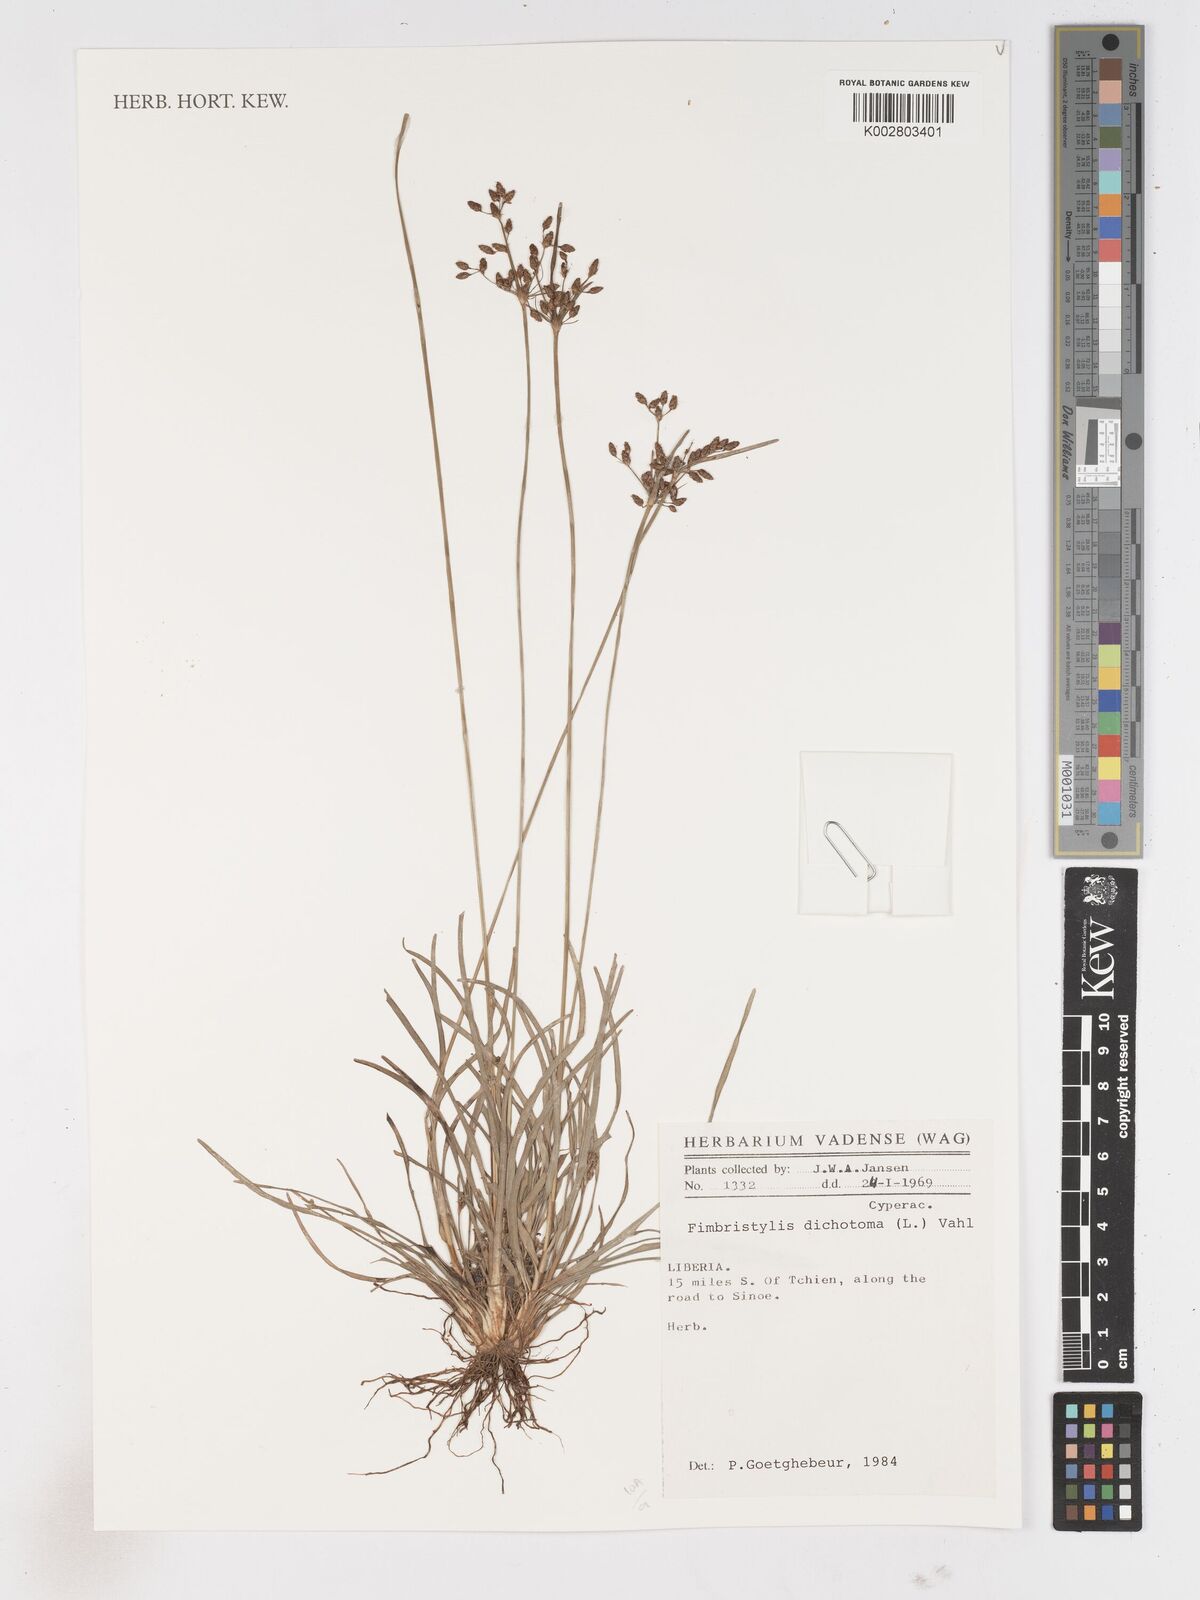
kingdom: Plantae
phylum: Tracheophyta
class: Liliopsida
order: Poales
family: Cyperaceae
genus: Fimbristylis
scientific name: Fimbristylis dichotoma
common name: Forked fimbry
